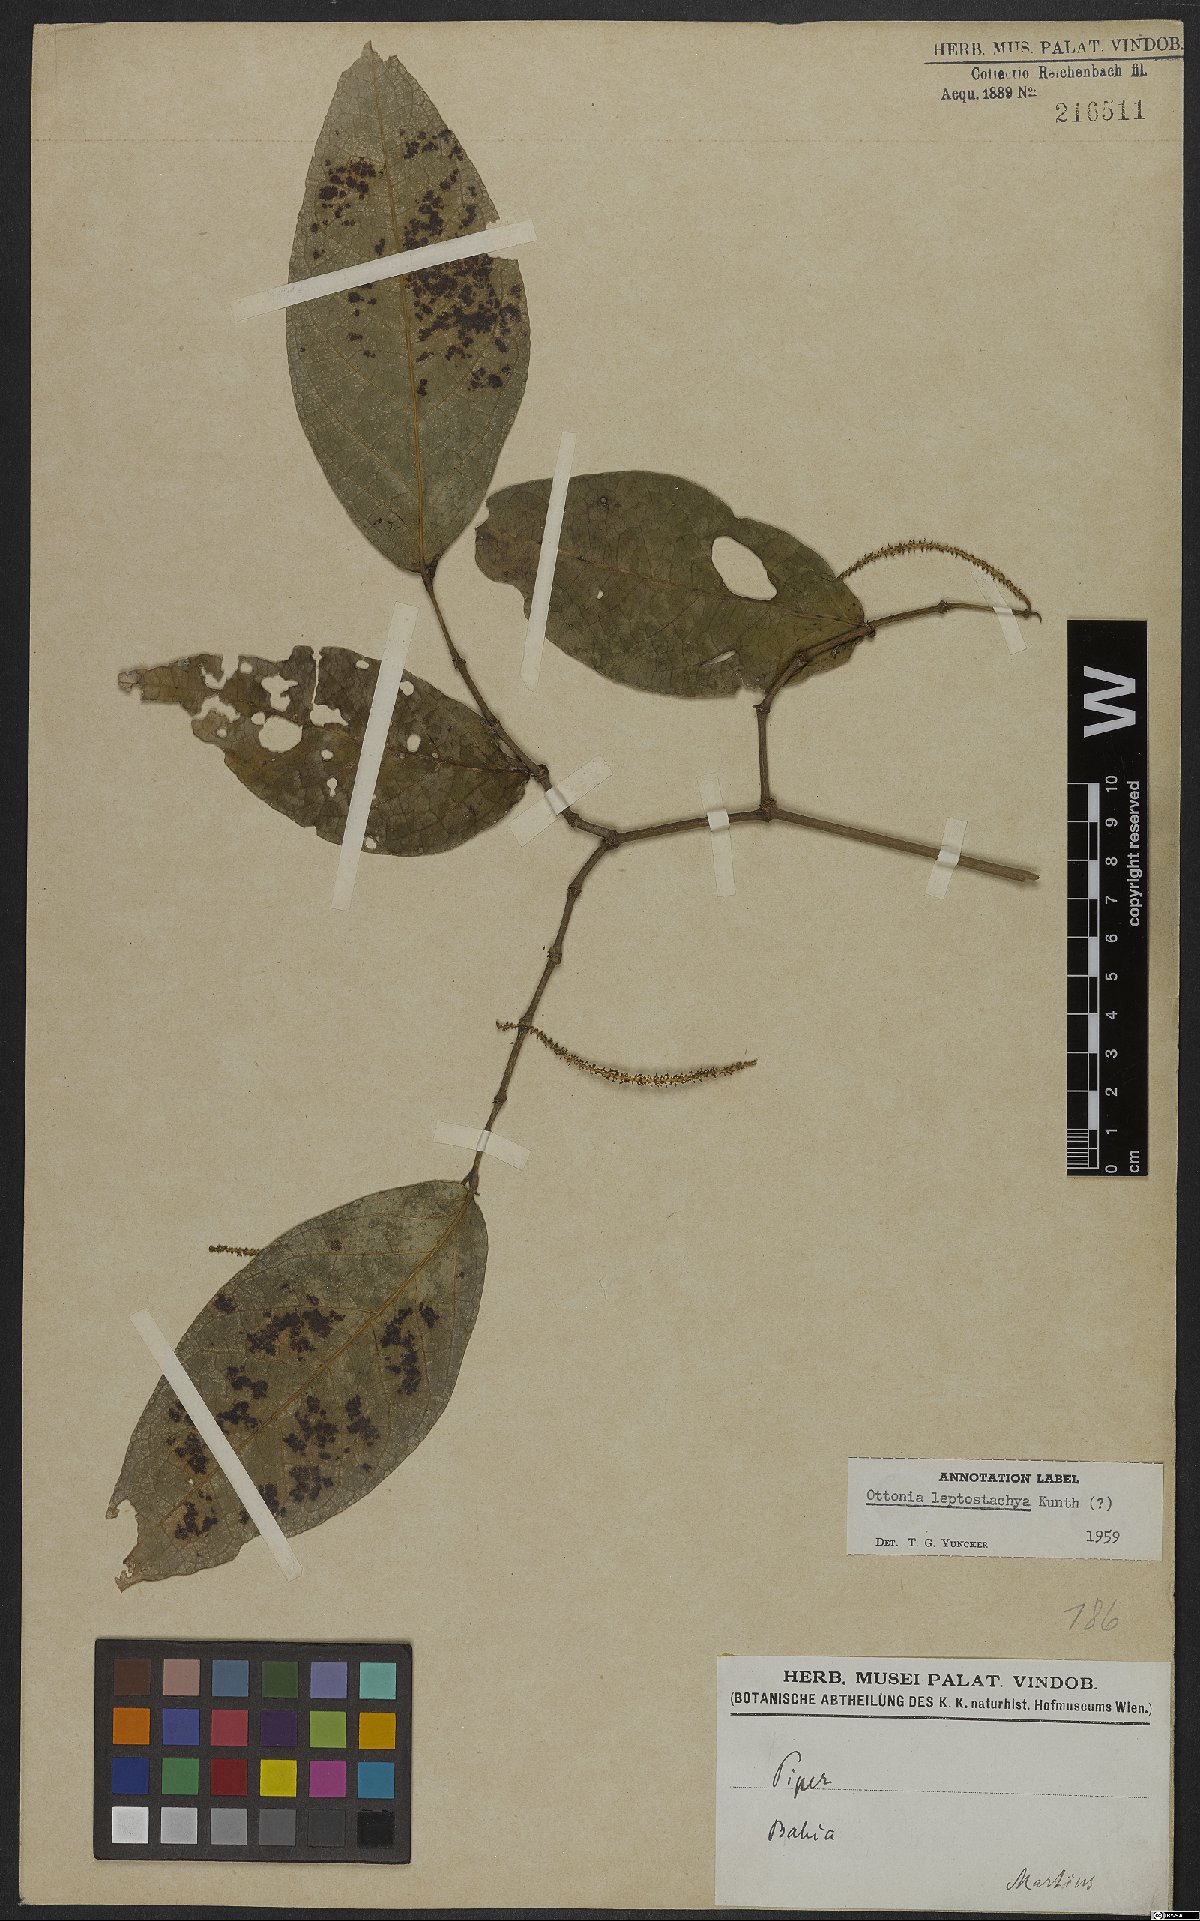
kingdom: Plantae
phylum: Tracheophyta
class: Magnoliopsida
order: Piperales
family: Piperaceae
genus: Piper
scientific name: Piper tenue
